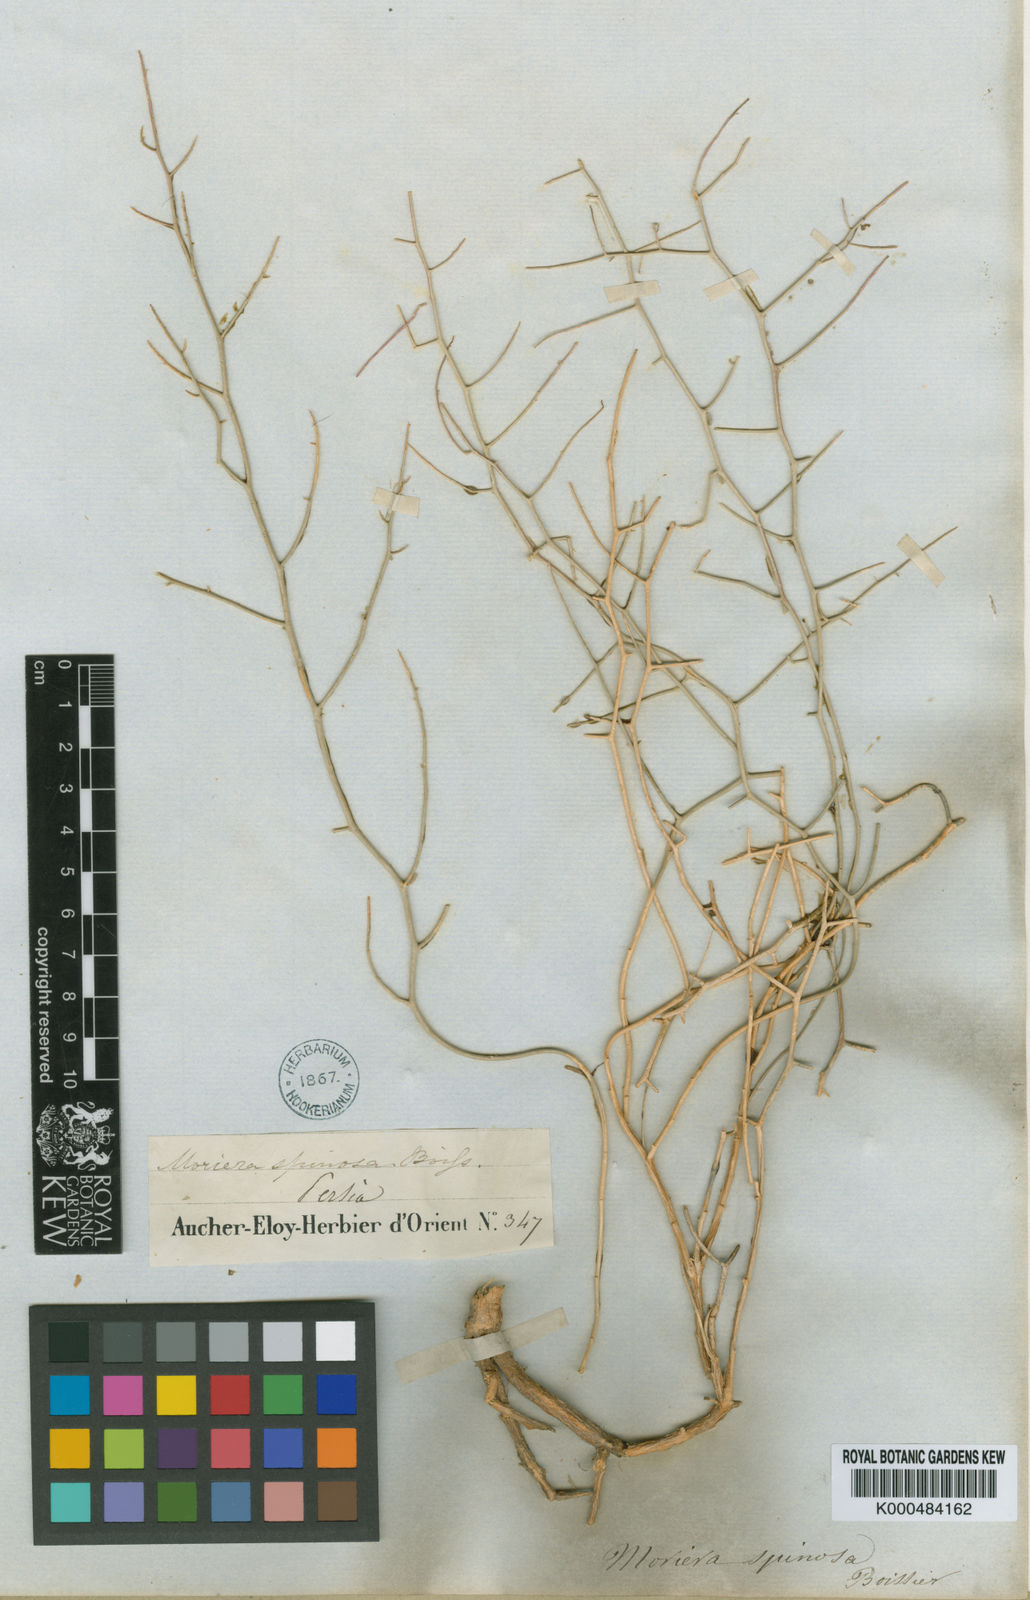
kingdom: Plantae
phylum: Tracheophyta
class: Magnoliopsida
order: Brassicales
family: Brassicaceae
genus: Aethionema
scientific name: Aethionema spinosum
